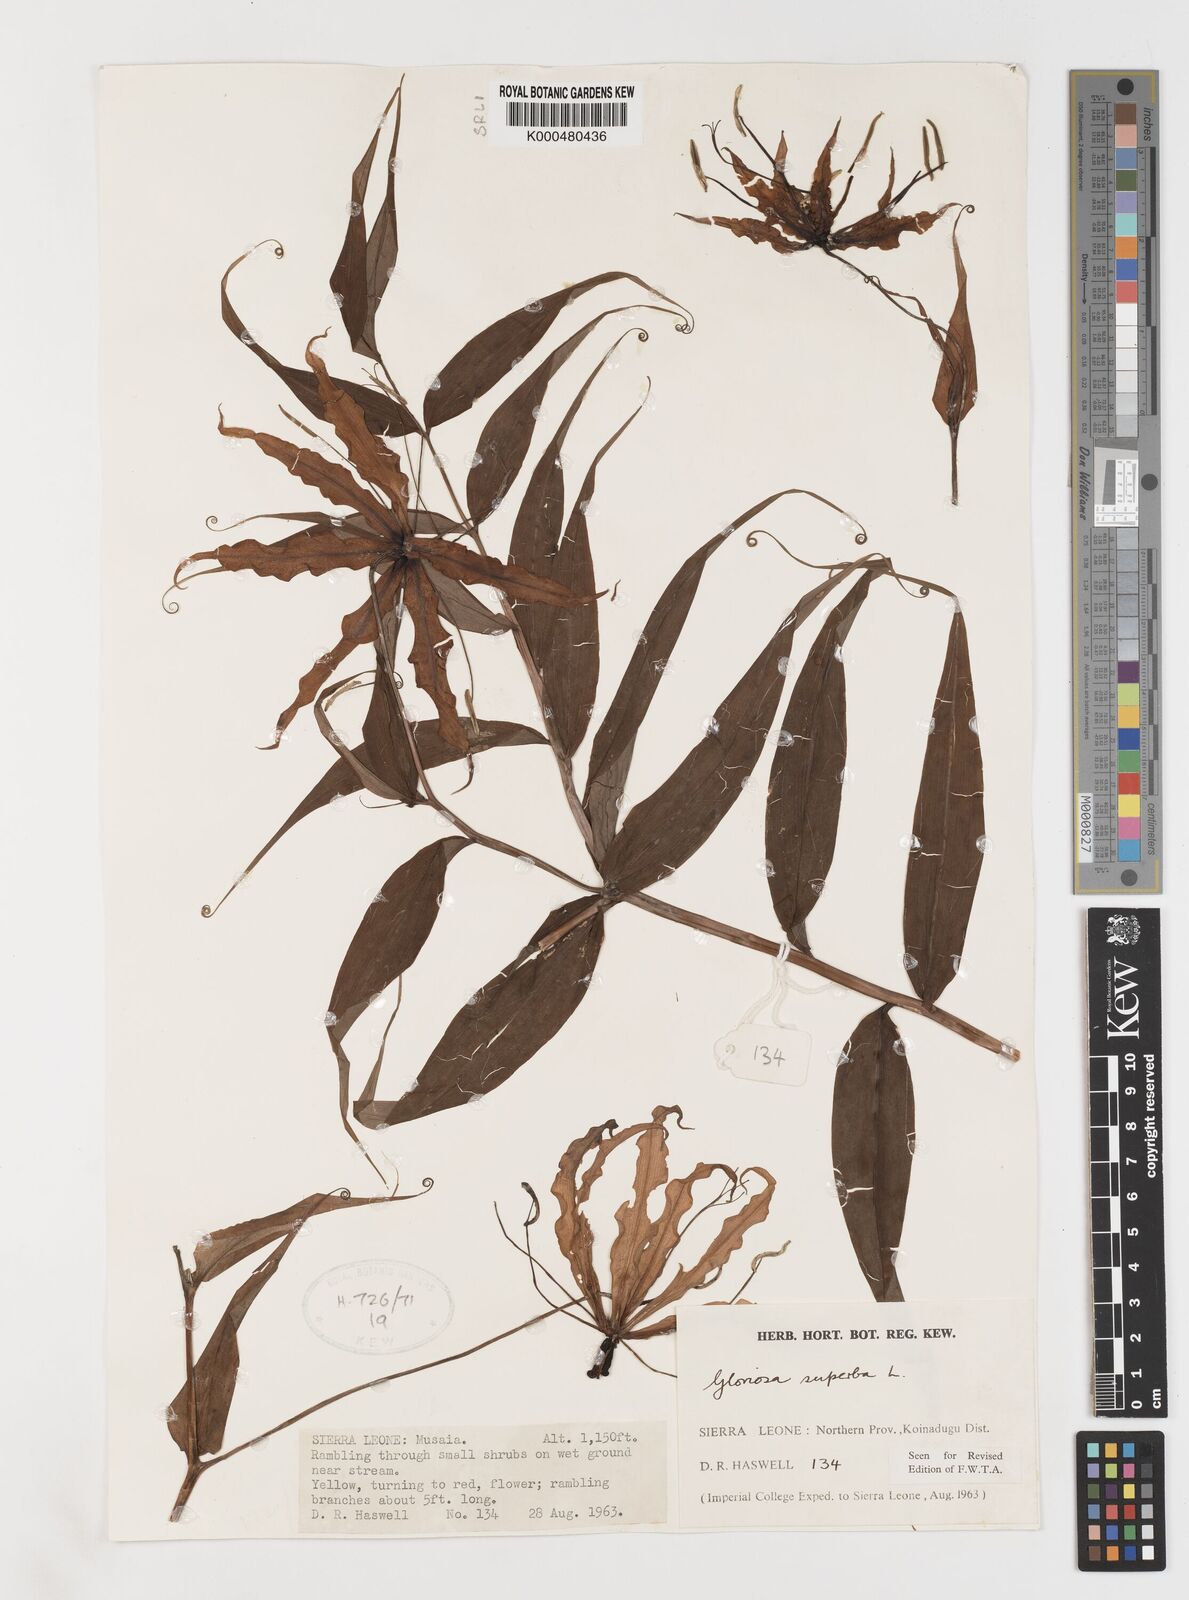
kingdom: Plantae
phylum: Tracheophyta
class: Liliopsida
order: Liliales
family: Colchicaceae
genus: Gloriosa
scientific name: Gloriosa superba
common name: Flame lily
